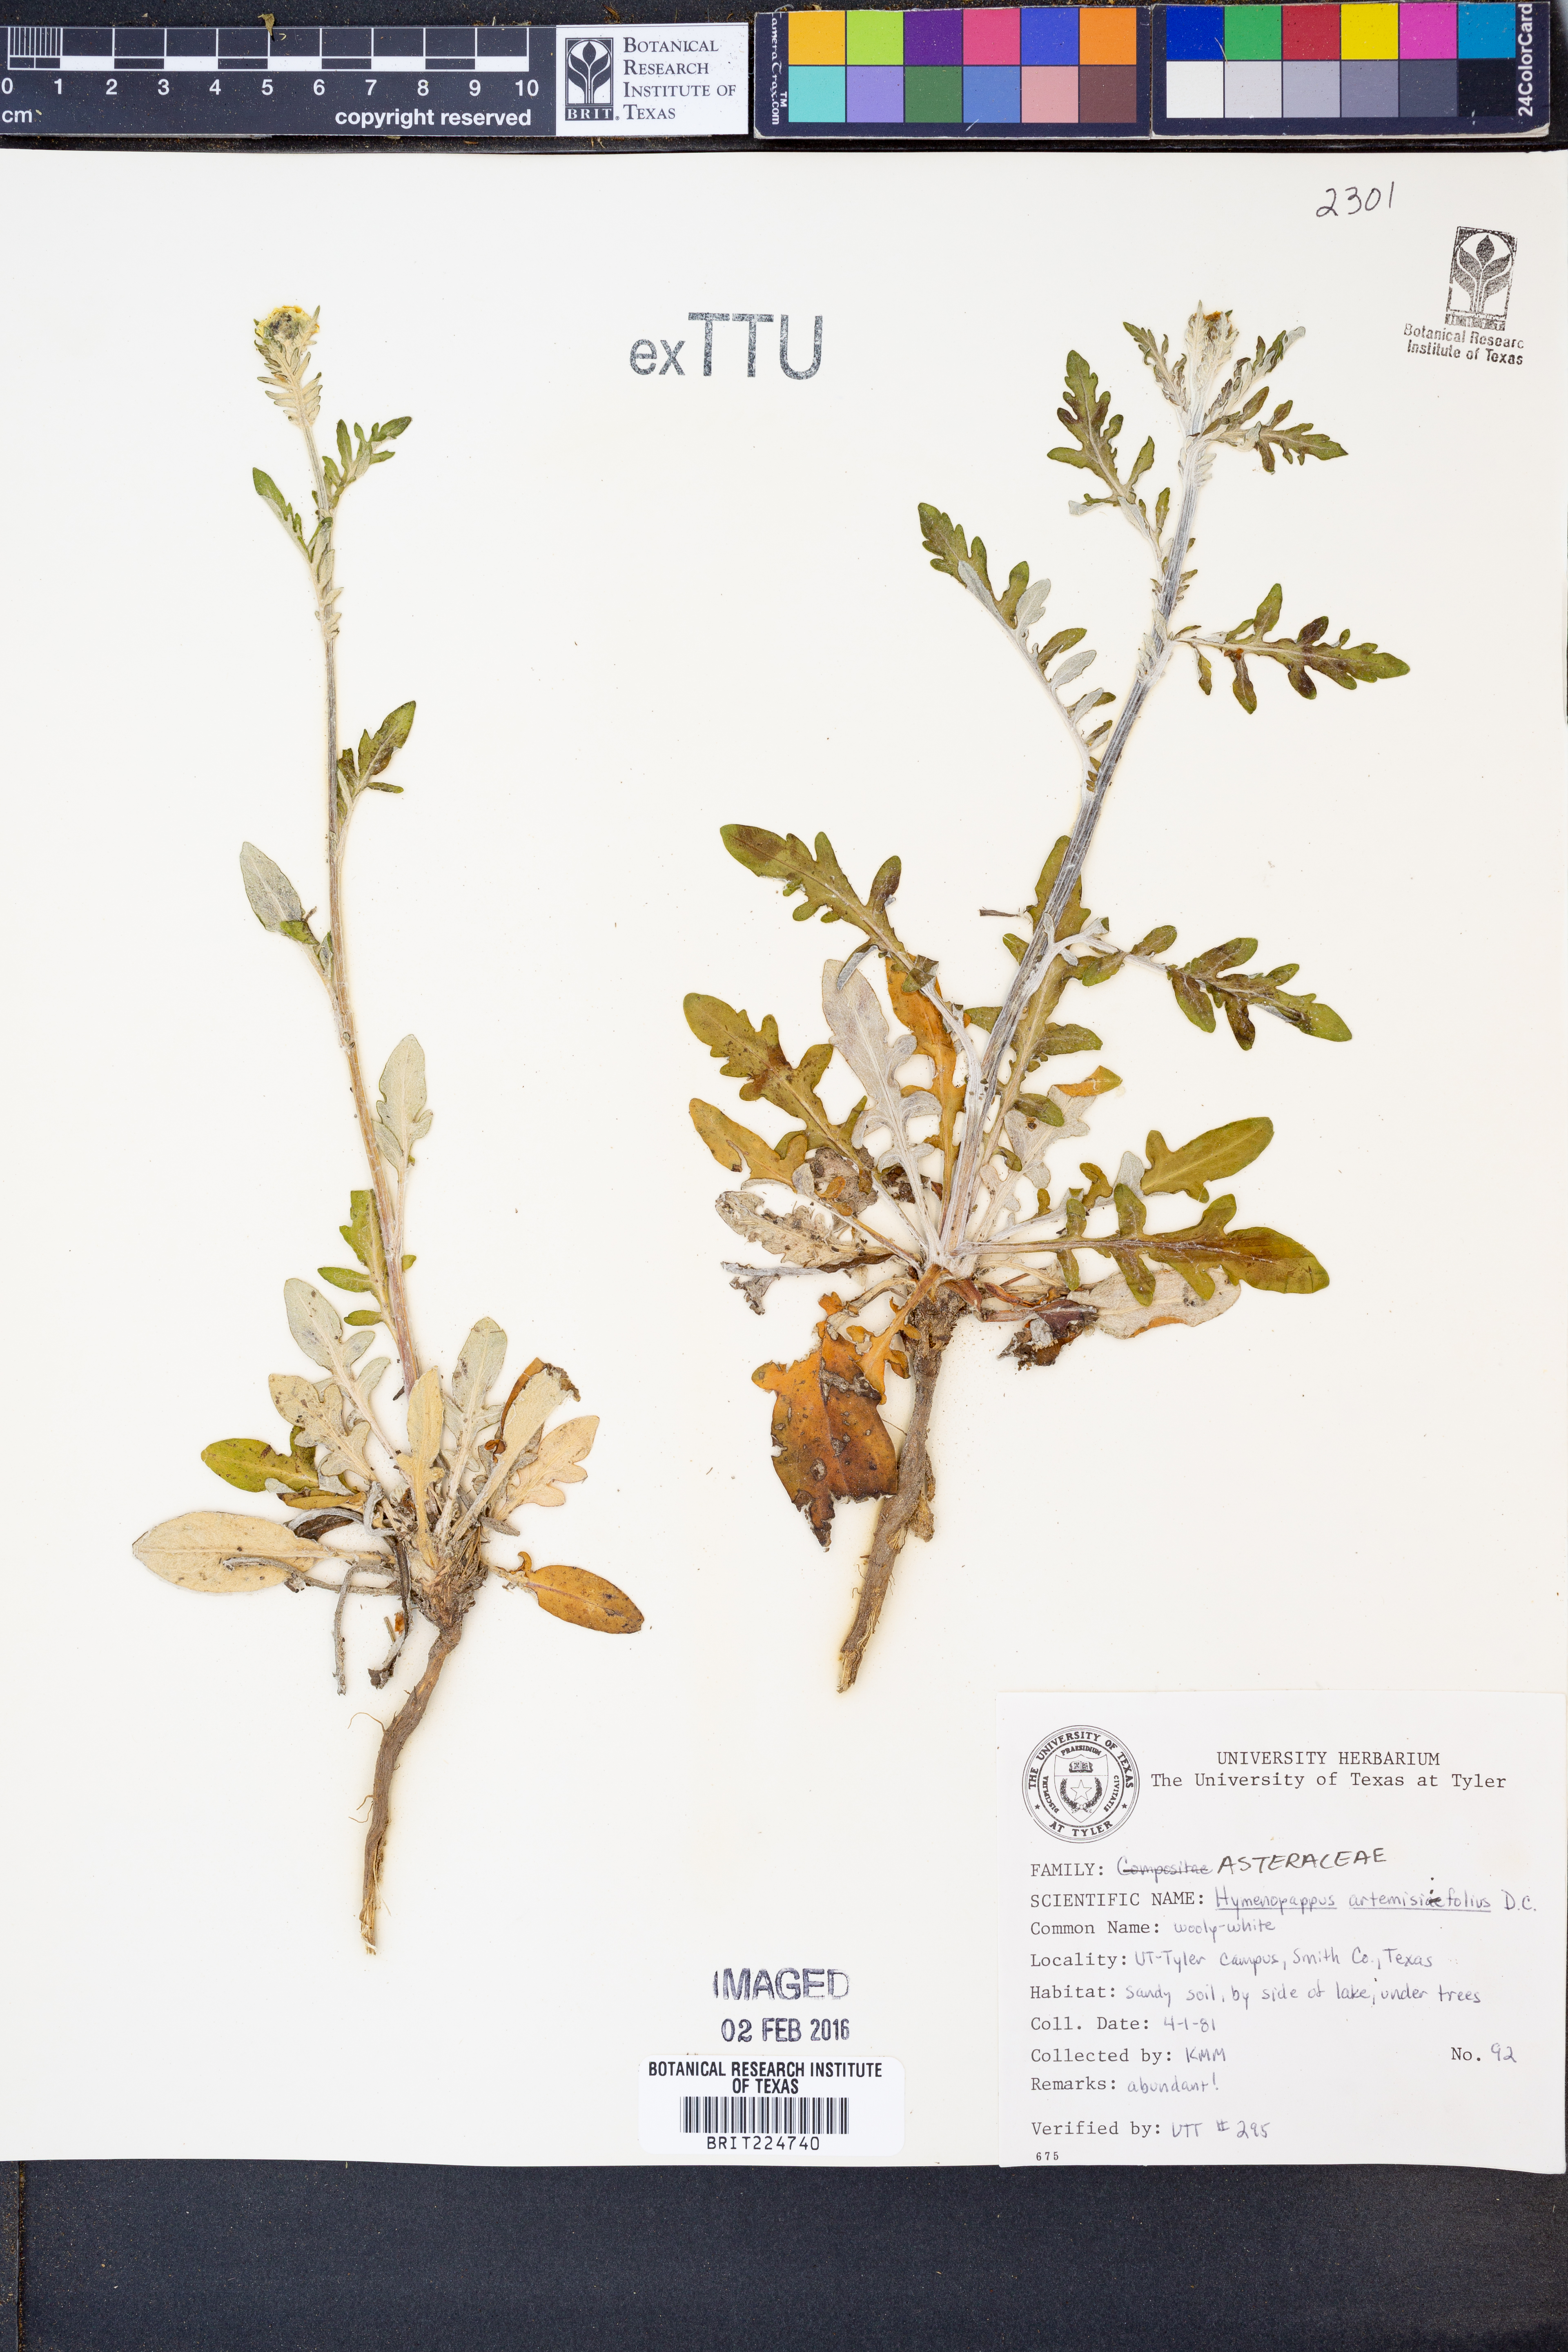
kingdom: Plantae
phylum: Tracheophyta
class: Magnoliopsida
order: Asterales
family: Asteraceae
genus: Hymenopappus
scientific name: Hymenopappus artemisiifolius
